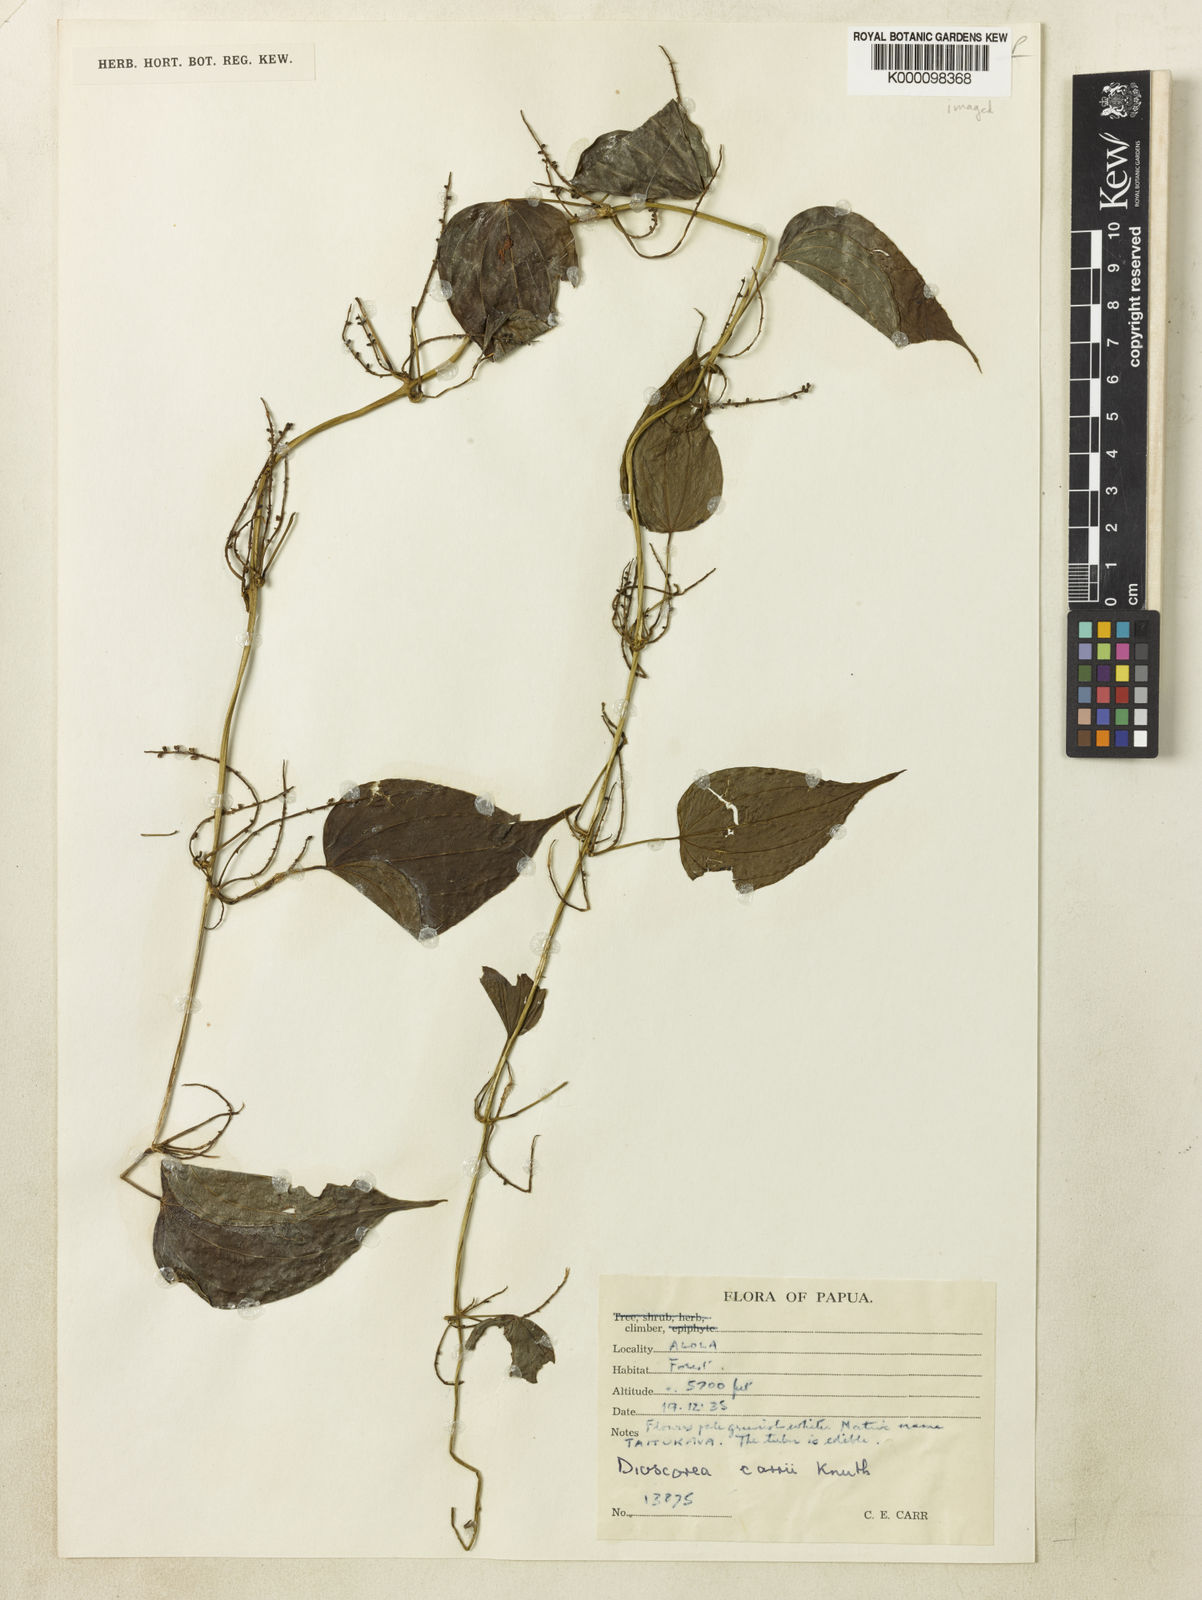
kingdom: Plantae
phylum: Tracheophyta
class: Liliopsida
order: Dioscoreales
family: Dioscoreaceae
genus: Dioscorea
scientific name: Dioscorea opaca
